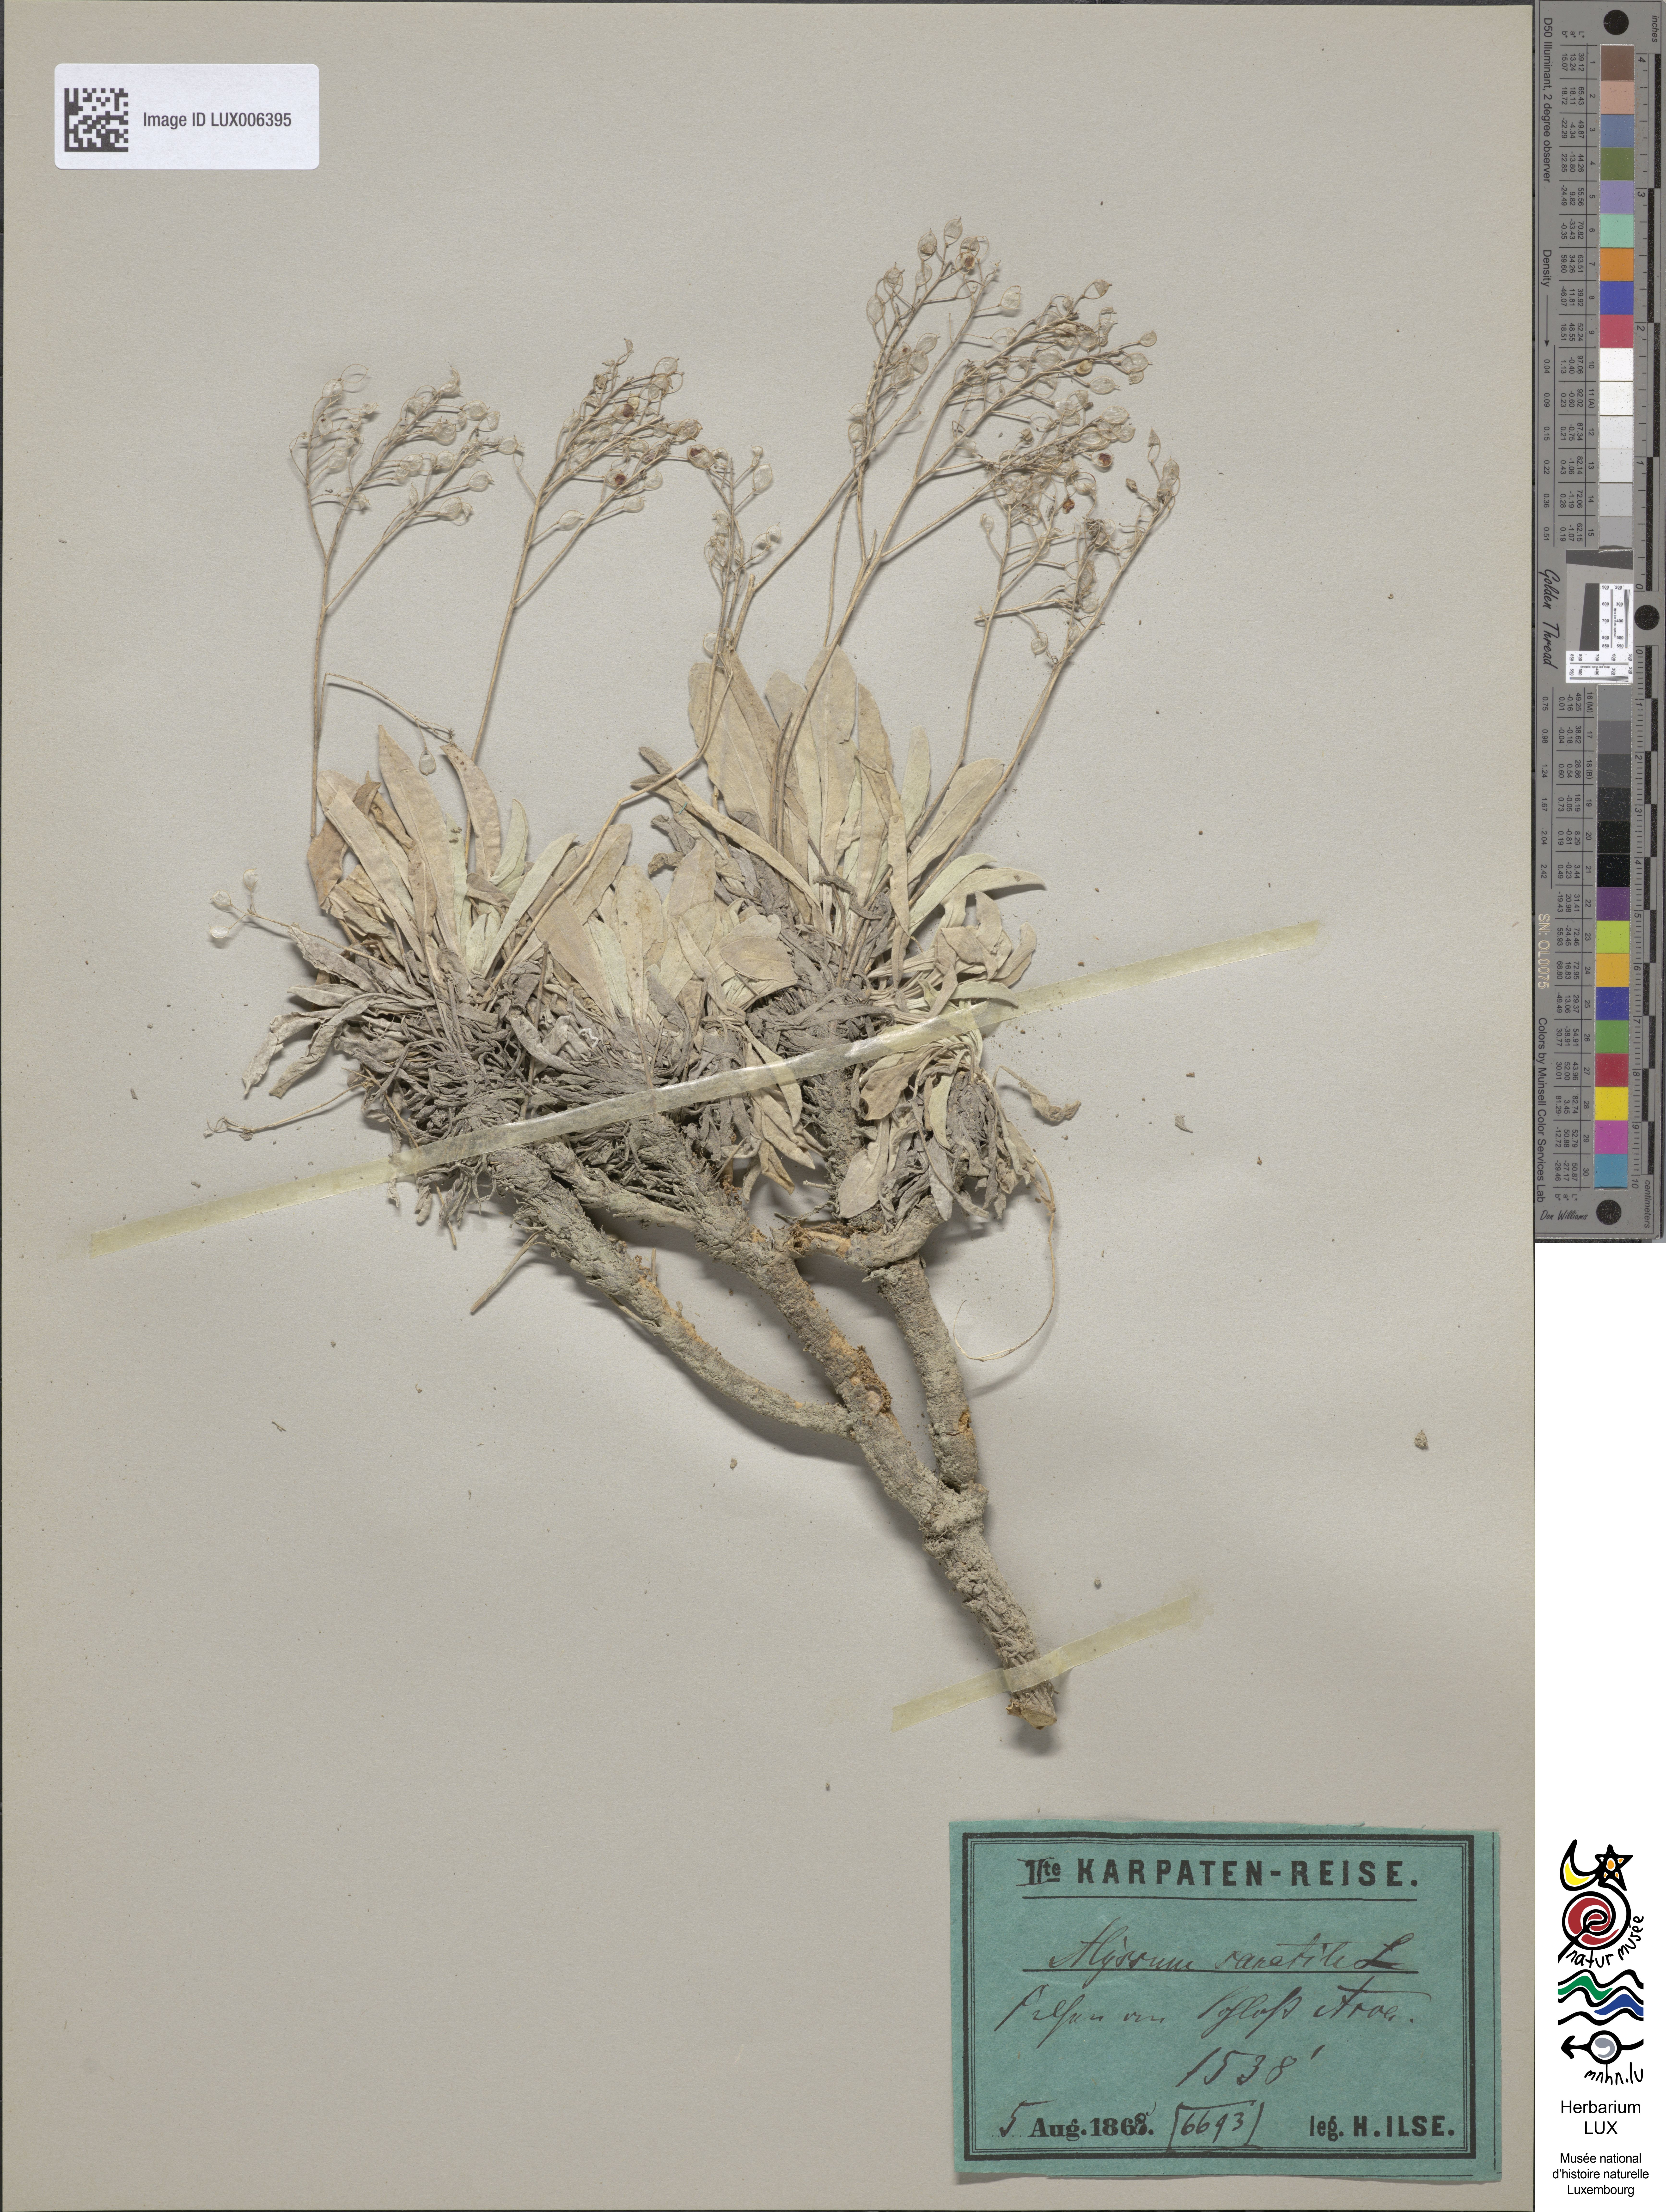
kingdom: Plantae
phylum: Tracheophyta
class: Magnoliopsida
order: Brassicales
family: Brassicaceae
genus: Aurinia
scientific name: Aurinia saxatilis
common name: Golden-tuft alyssum
